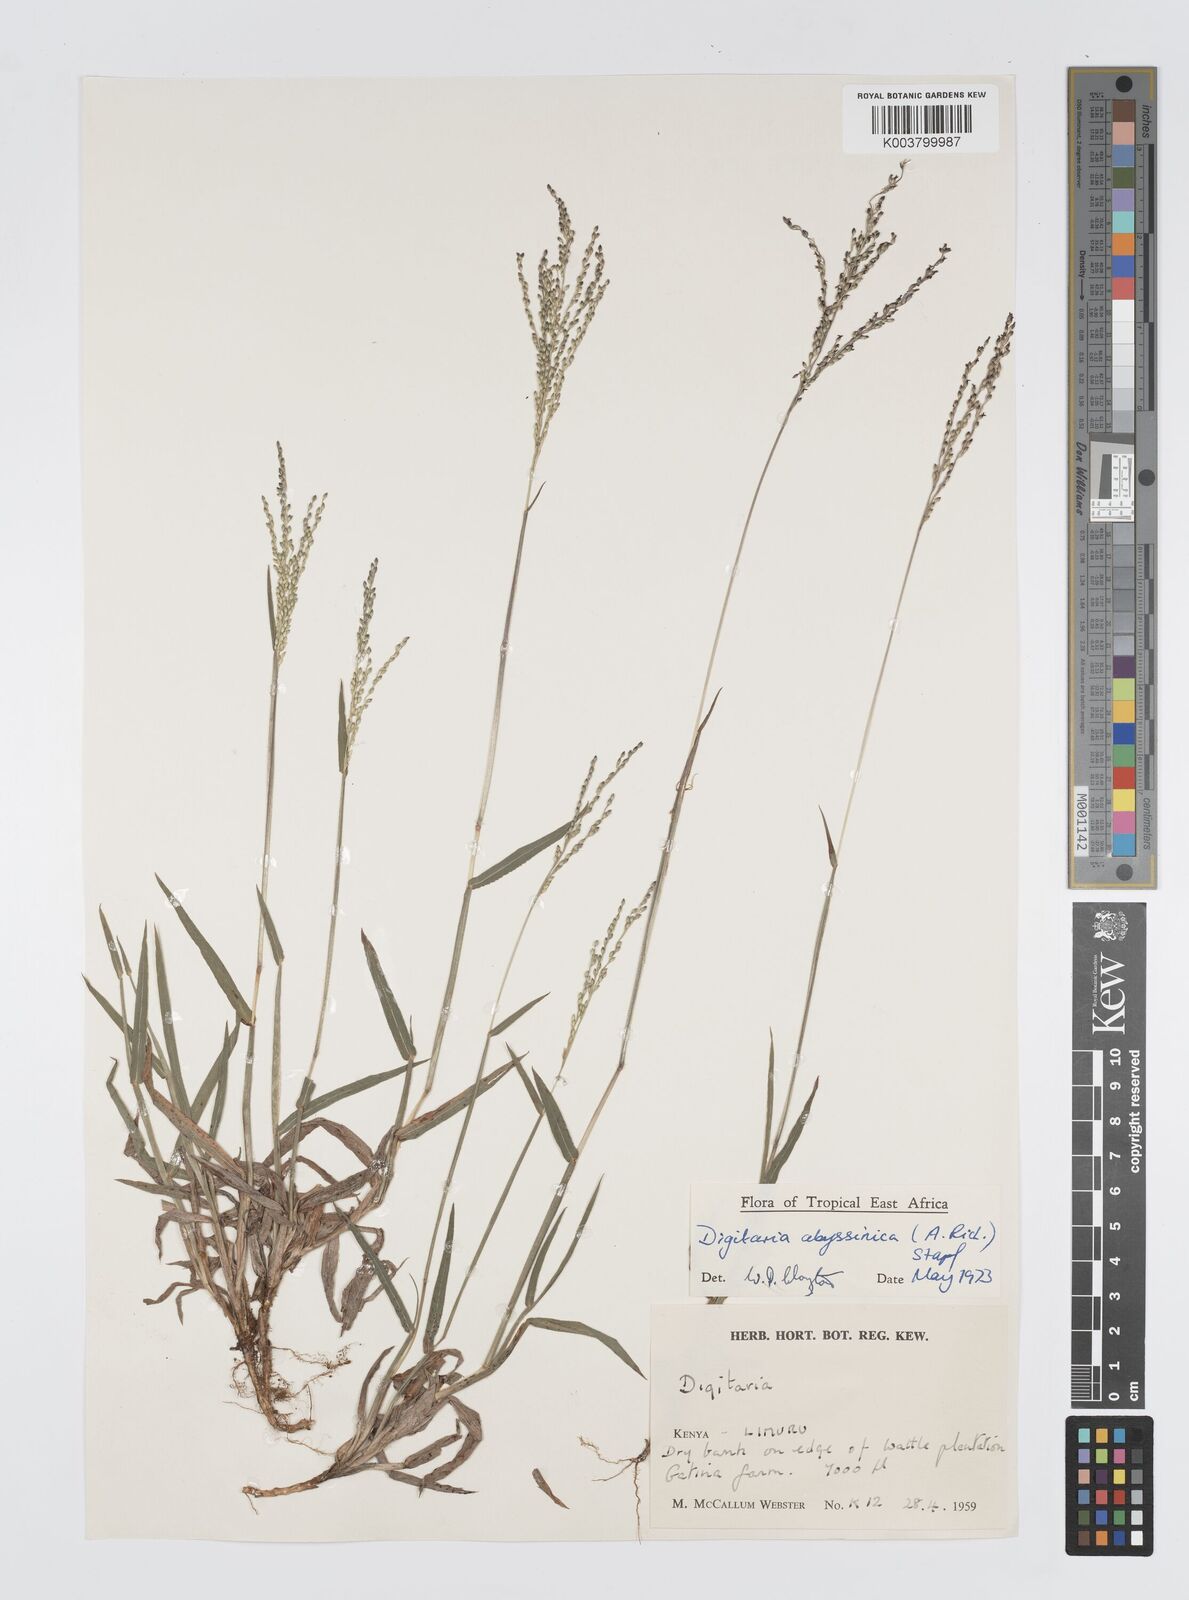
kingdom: Plantae
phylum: Tracheophyta
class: Liliopsida
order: Poales
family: Poaceae
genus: Digitaria
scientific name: Digitaria abyssinica
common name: African couchgrass
